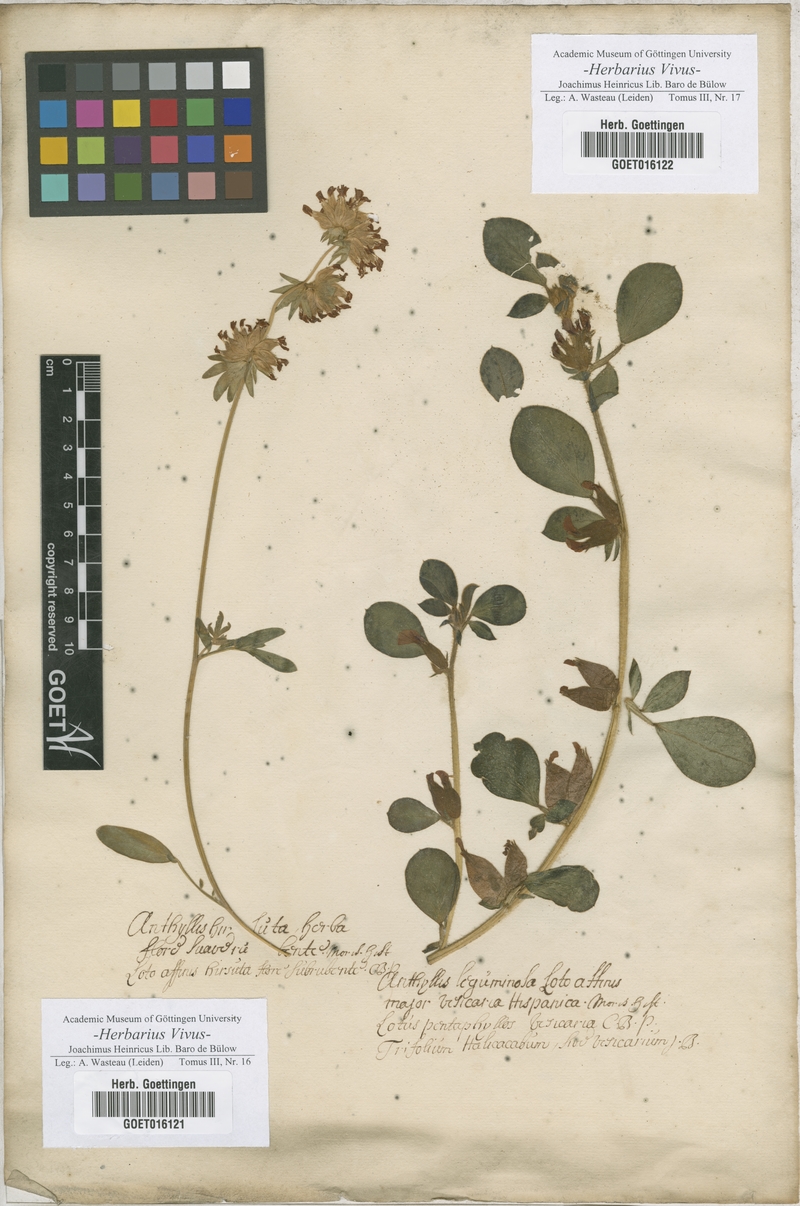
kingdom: Plantae
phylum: Tracheophyta
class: Magnoliopsida
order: Fabales
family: Fabaceae
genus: Anthyllis
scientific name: Anthyllis
